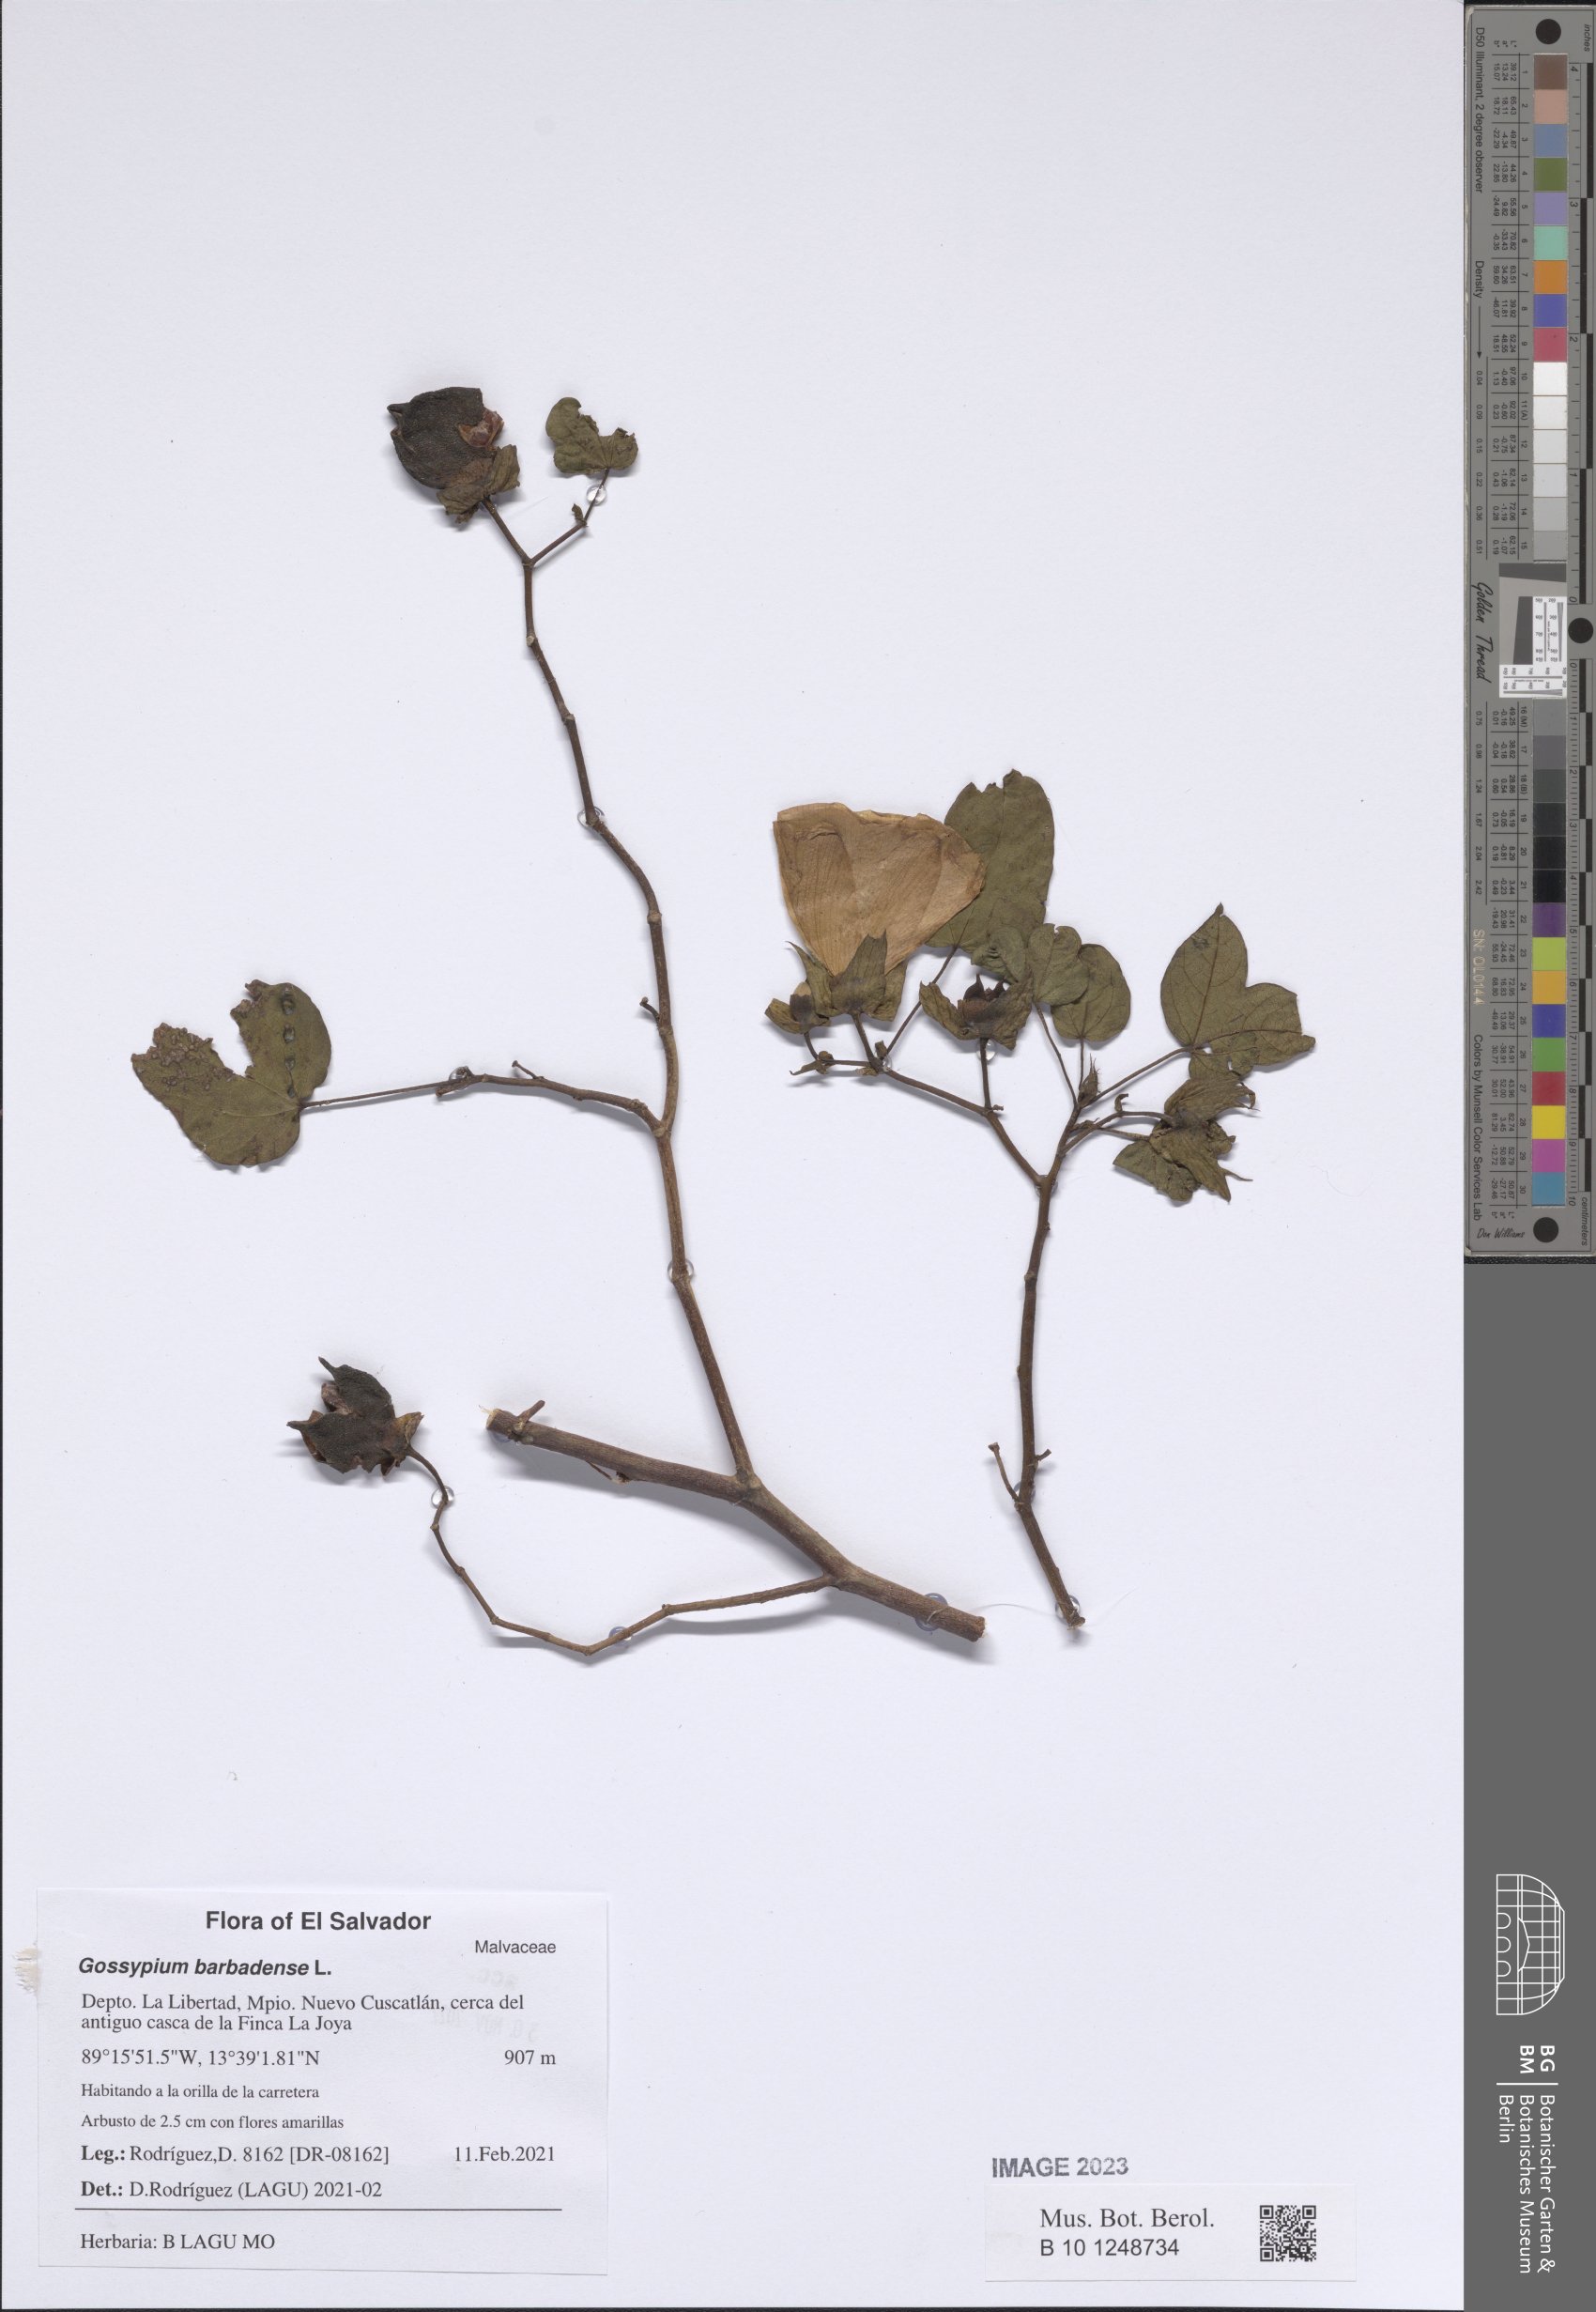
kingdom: Plantae
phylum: Tracheophyta
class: Magnoliopsida
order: Malvales
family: Malvaceae
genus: Gossypium
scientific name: Gossypium barbadense
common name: Creole cotton
